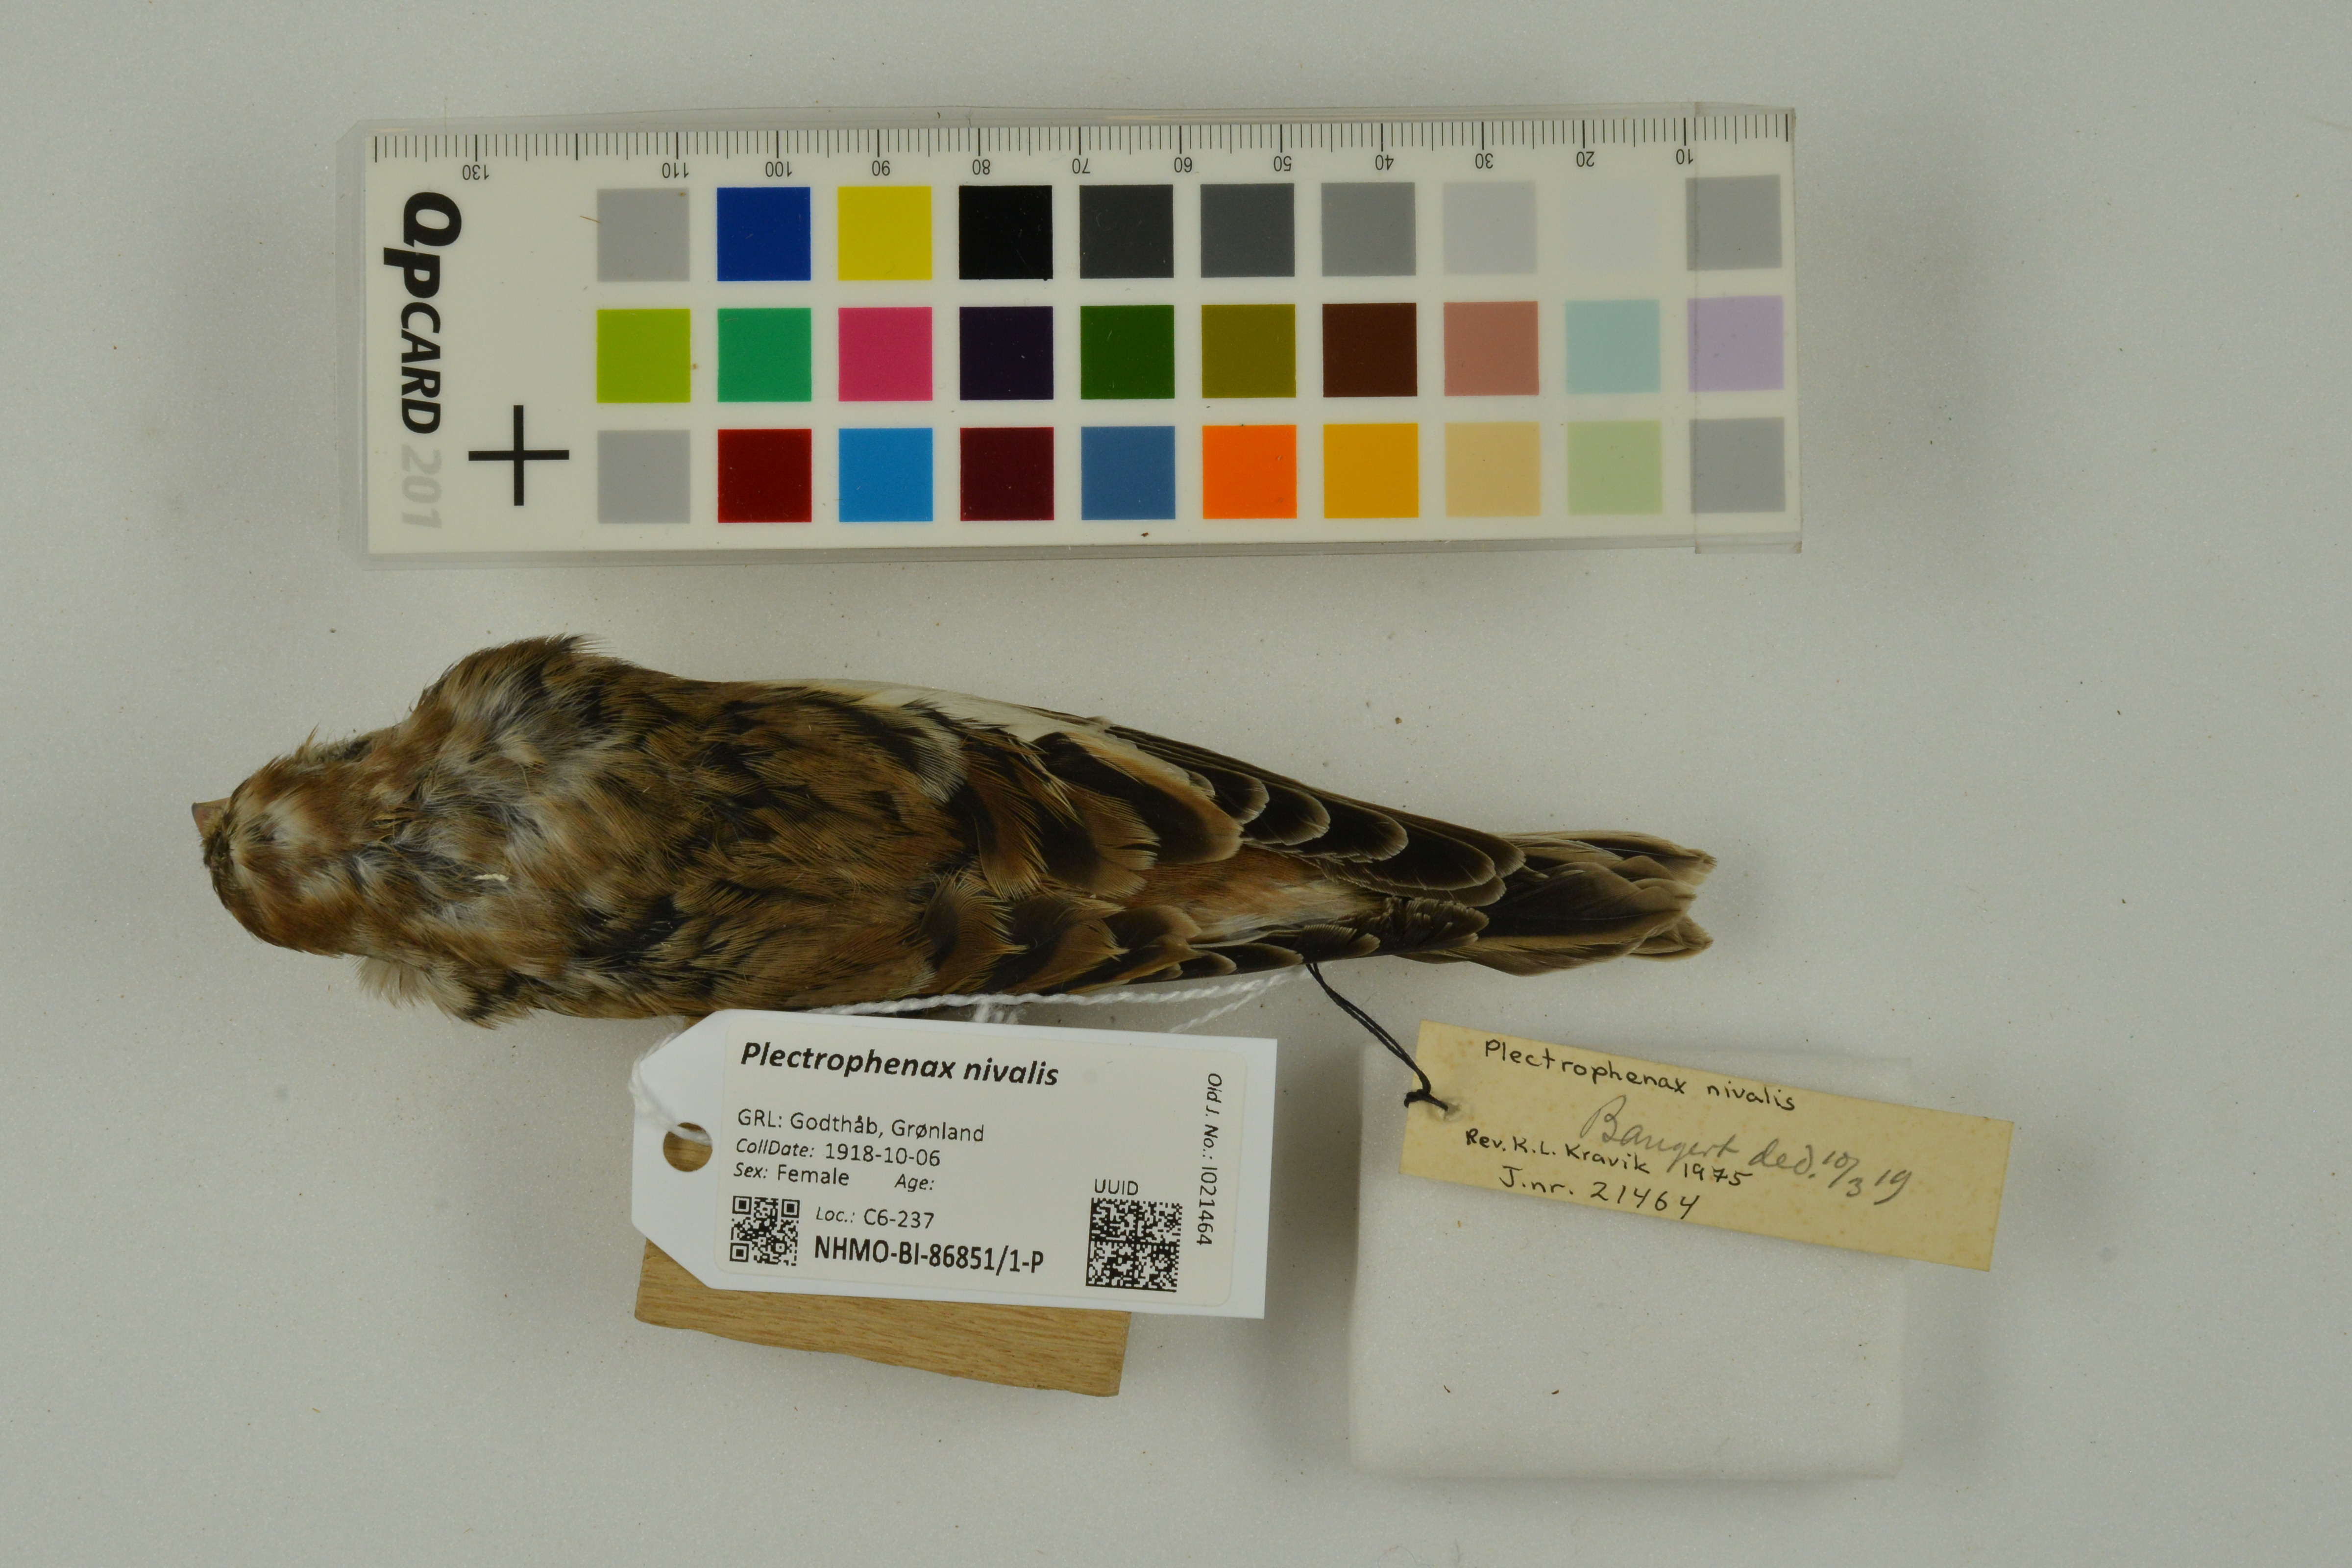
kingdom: Animalia
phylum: Chordata
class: Aves
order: Passeriformes
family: Calcariidae
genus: Plectrophenax
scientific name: Plectrophenax nivalis
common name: Snow bunting
